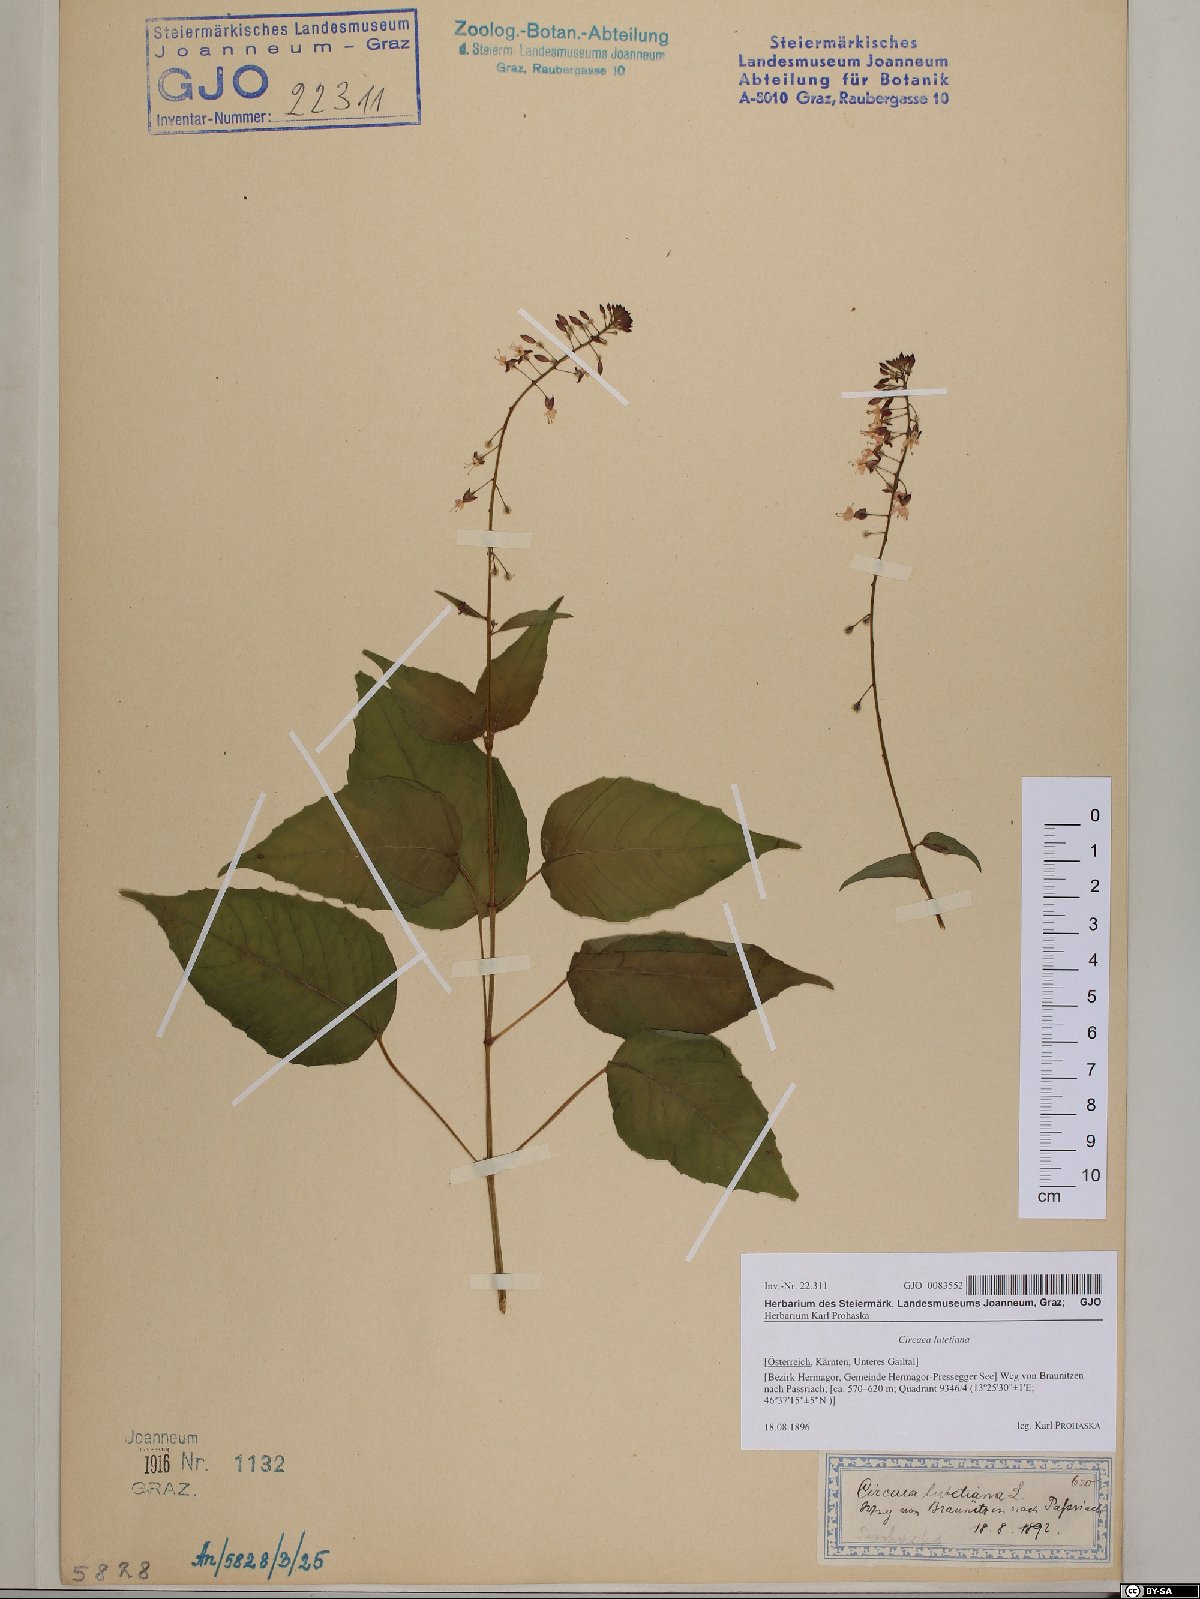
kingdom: Plantae
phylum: Tracheophyta
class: Magnoliopsida
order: Myrtales
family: Onagraceae
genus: Circaea
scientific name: Circaea lutetiana
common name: Enchanter's-nightshade
